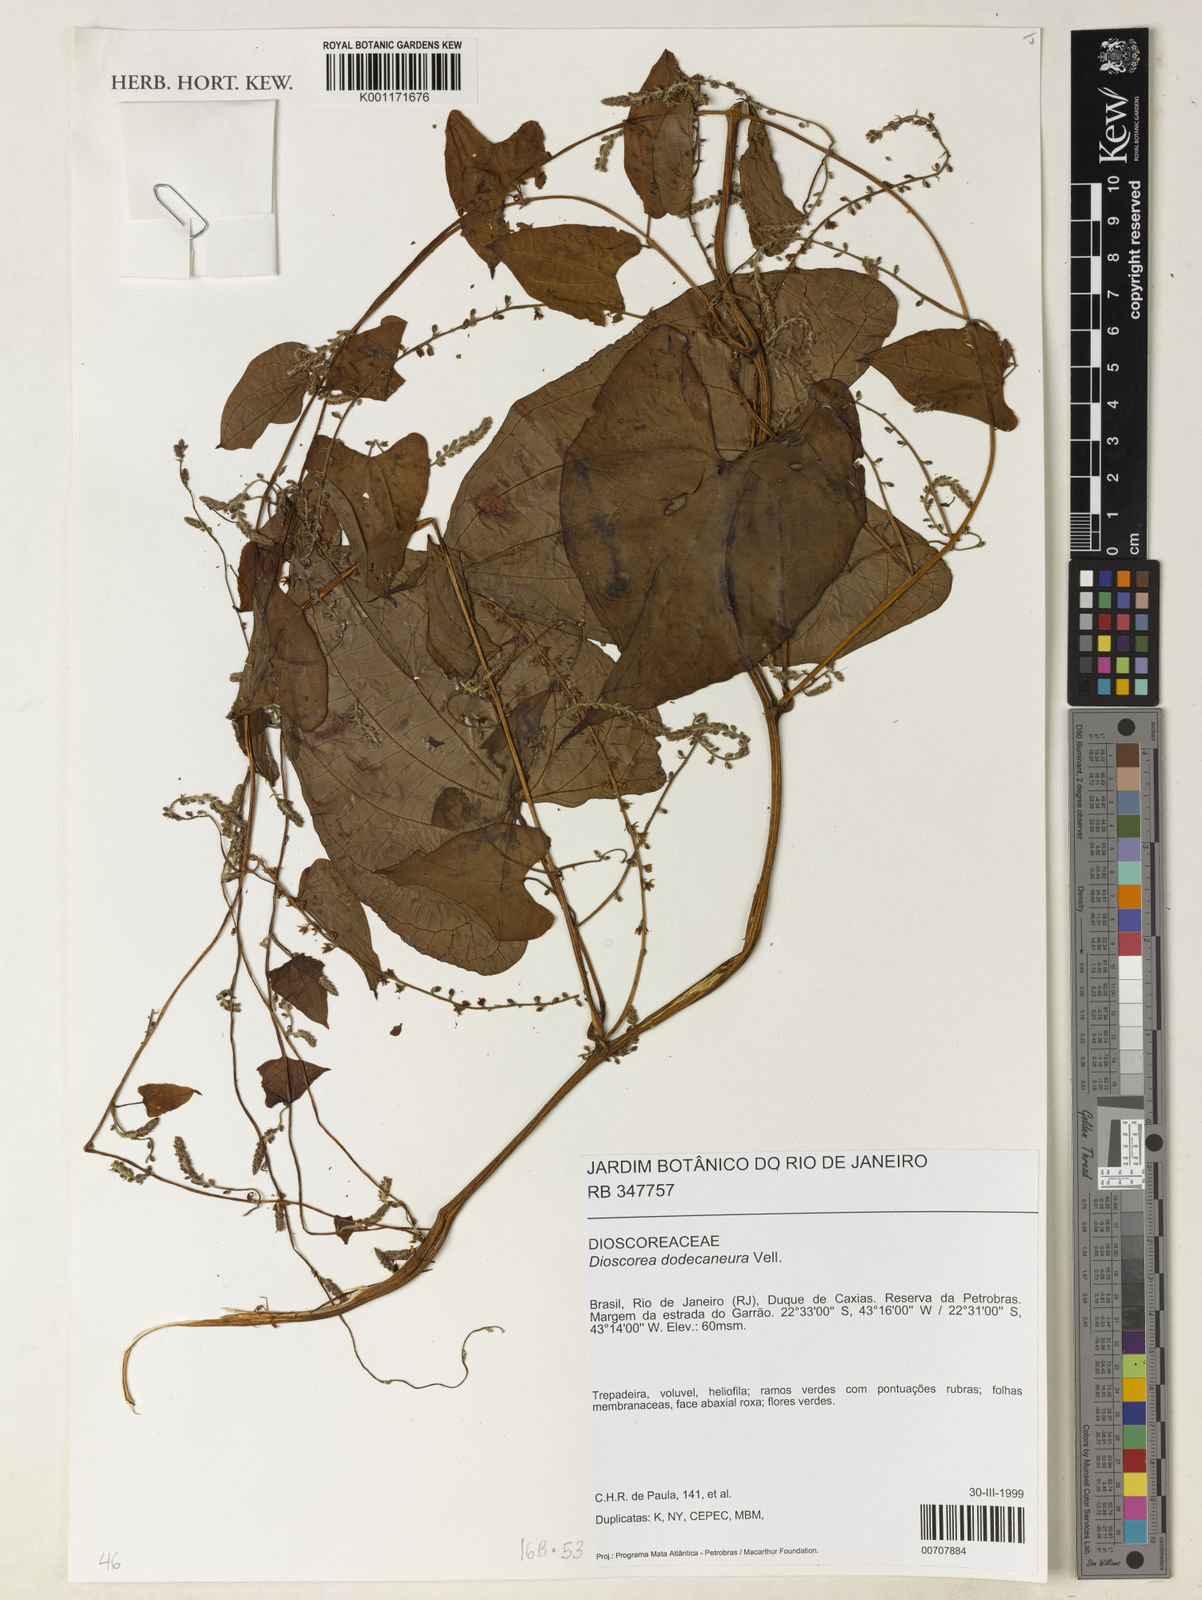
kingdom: Plantae
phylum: Tracheophyta
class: Liliopsida
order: Dioscoreales
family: Dioscoreaceae
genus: Dioscorea
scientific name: Dioscorea dodecaneura
